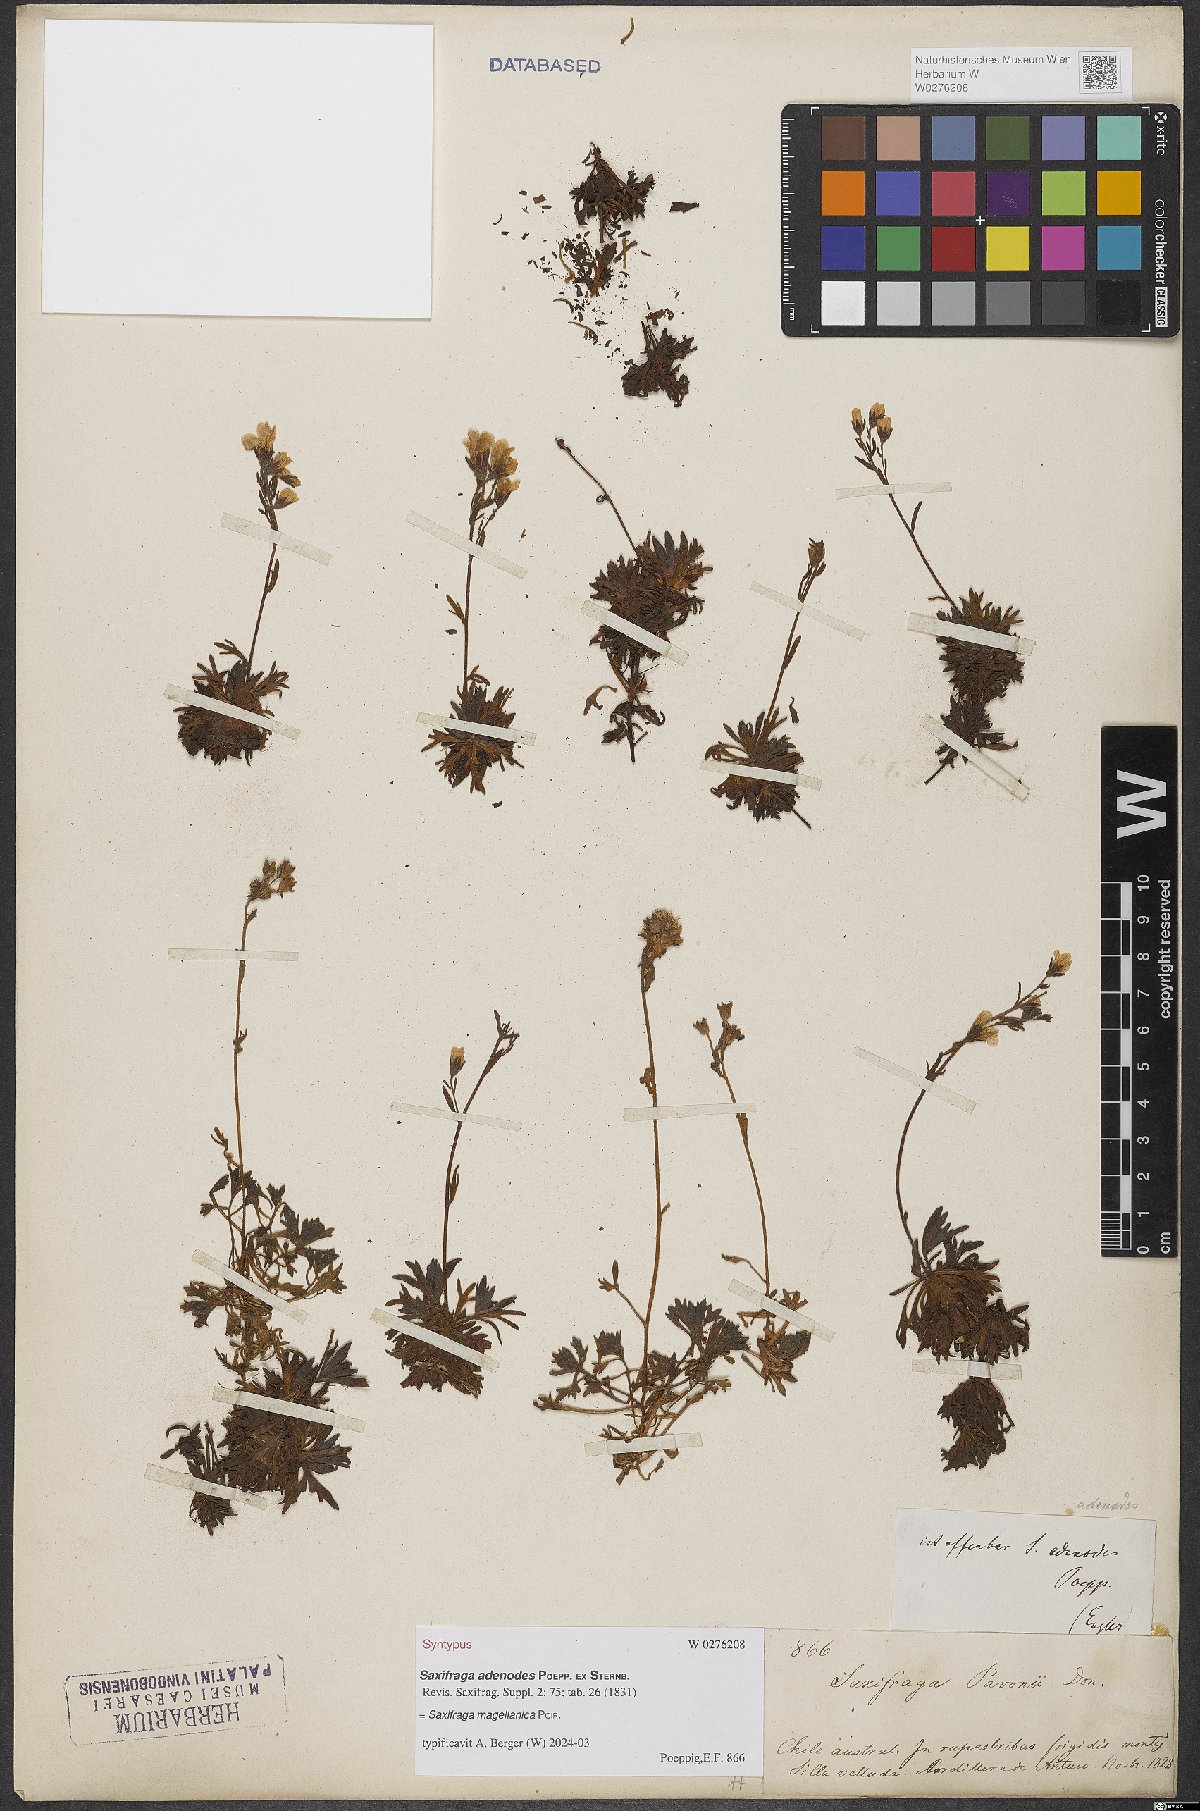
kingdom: Plantae
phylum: Tracheophyta
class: Magnoliopsida
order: Saxifragales
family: Saxifragaceae
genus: Saxifraga
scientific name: Saxifraga magellanica
